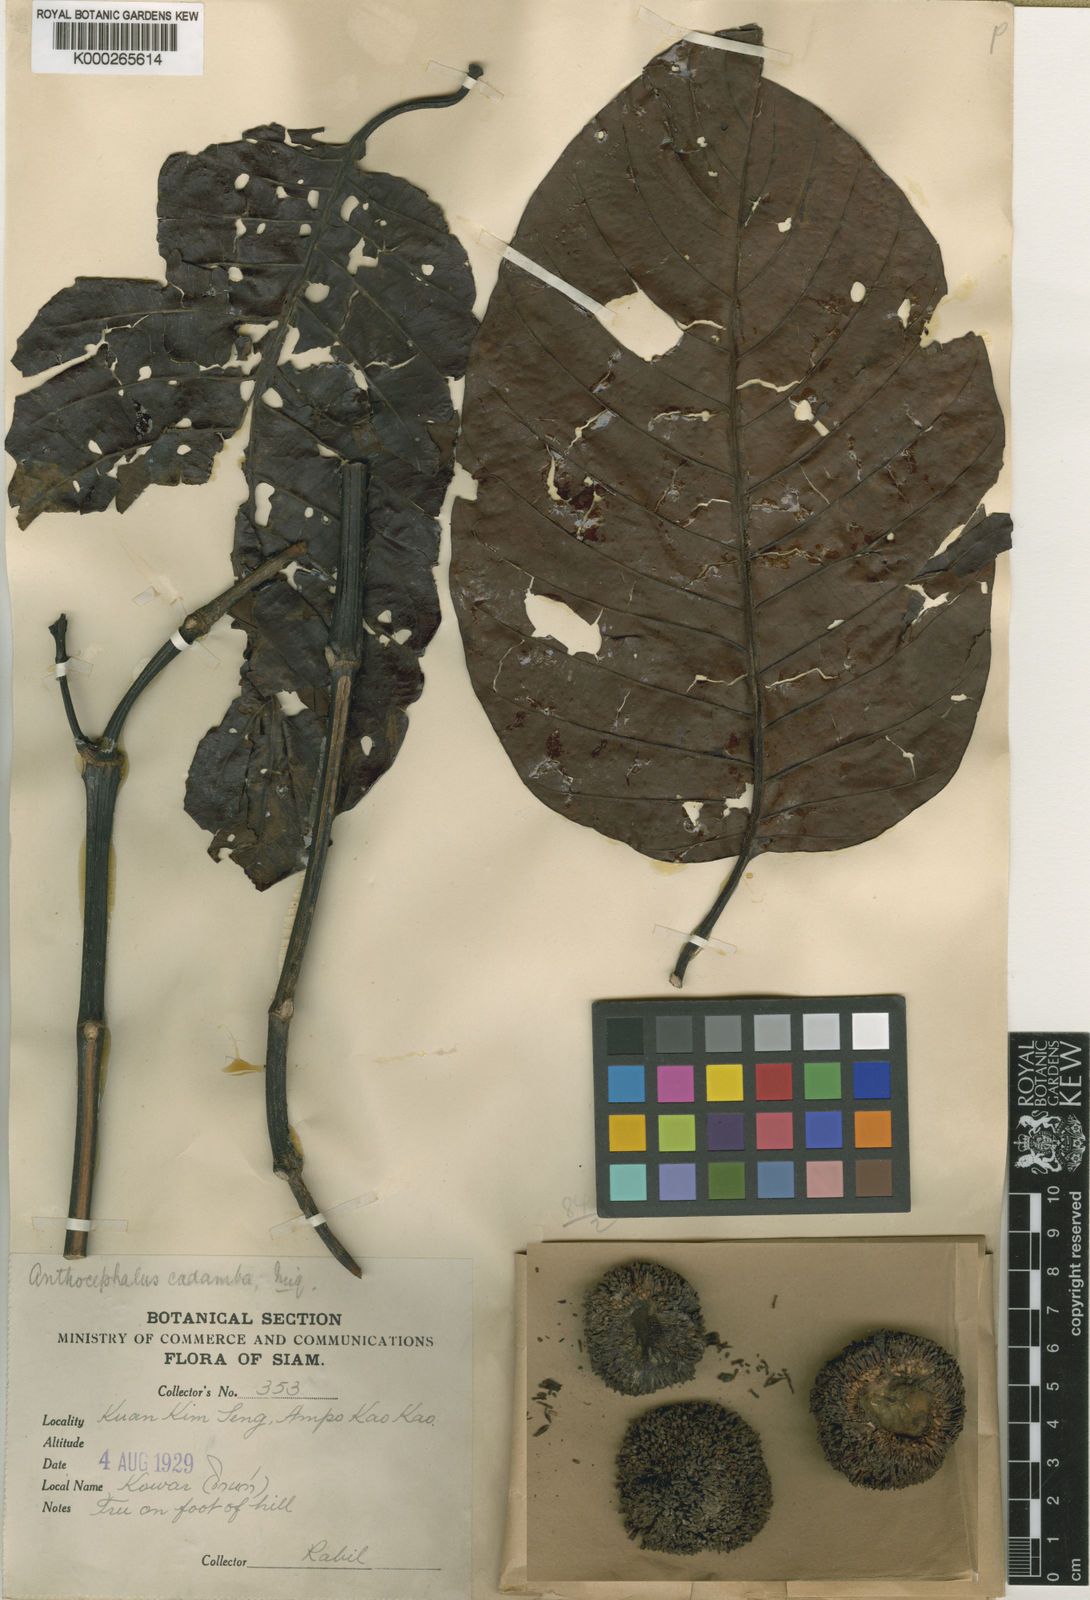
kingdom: Plantae
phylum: Tracheophyta
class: Magnoliopsida
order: Gentianales
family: Rubiaceae
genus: Neolamarckia
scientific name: Neolamarckia cadamba
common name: Leichhardt-pine
